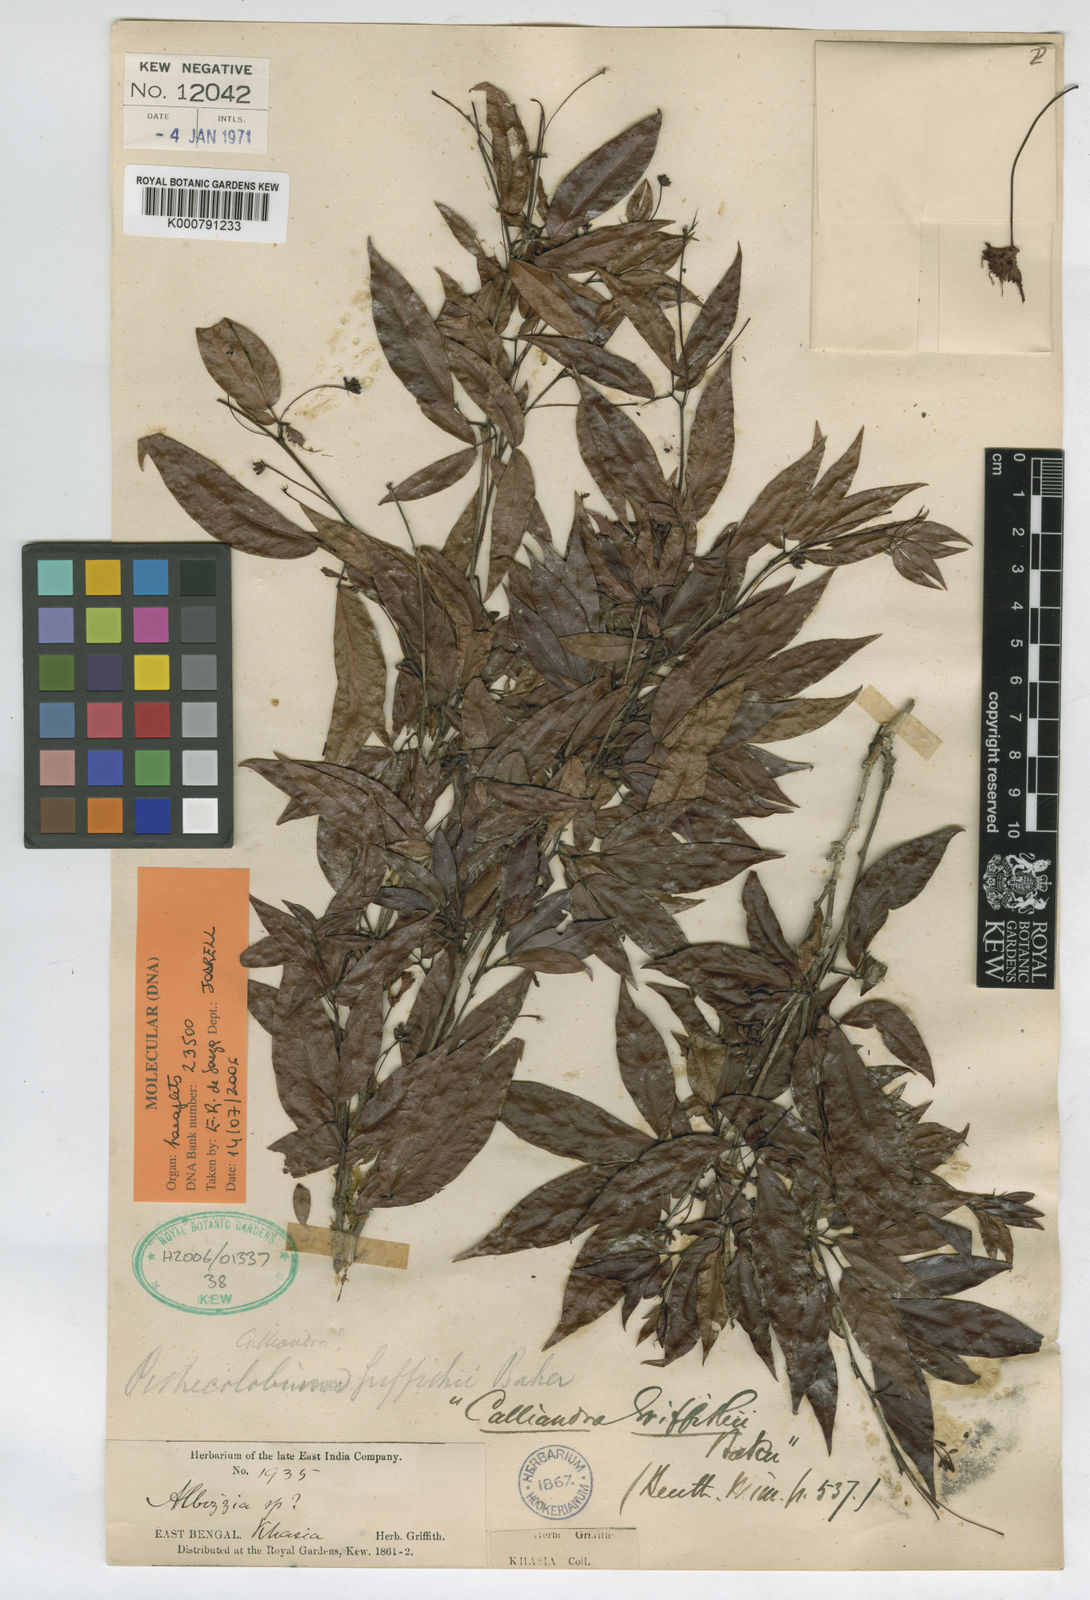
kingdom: Plantae
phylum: Tracheophyta
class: Magnoliopsida
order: Fabales
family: Fabaceae
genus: Albizia
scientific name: Albizia umbrosa
